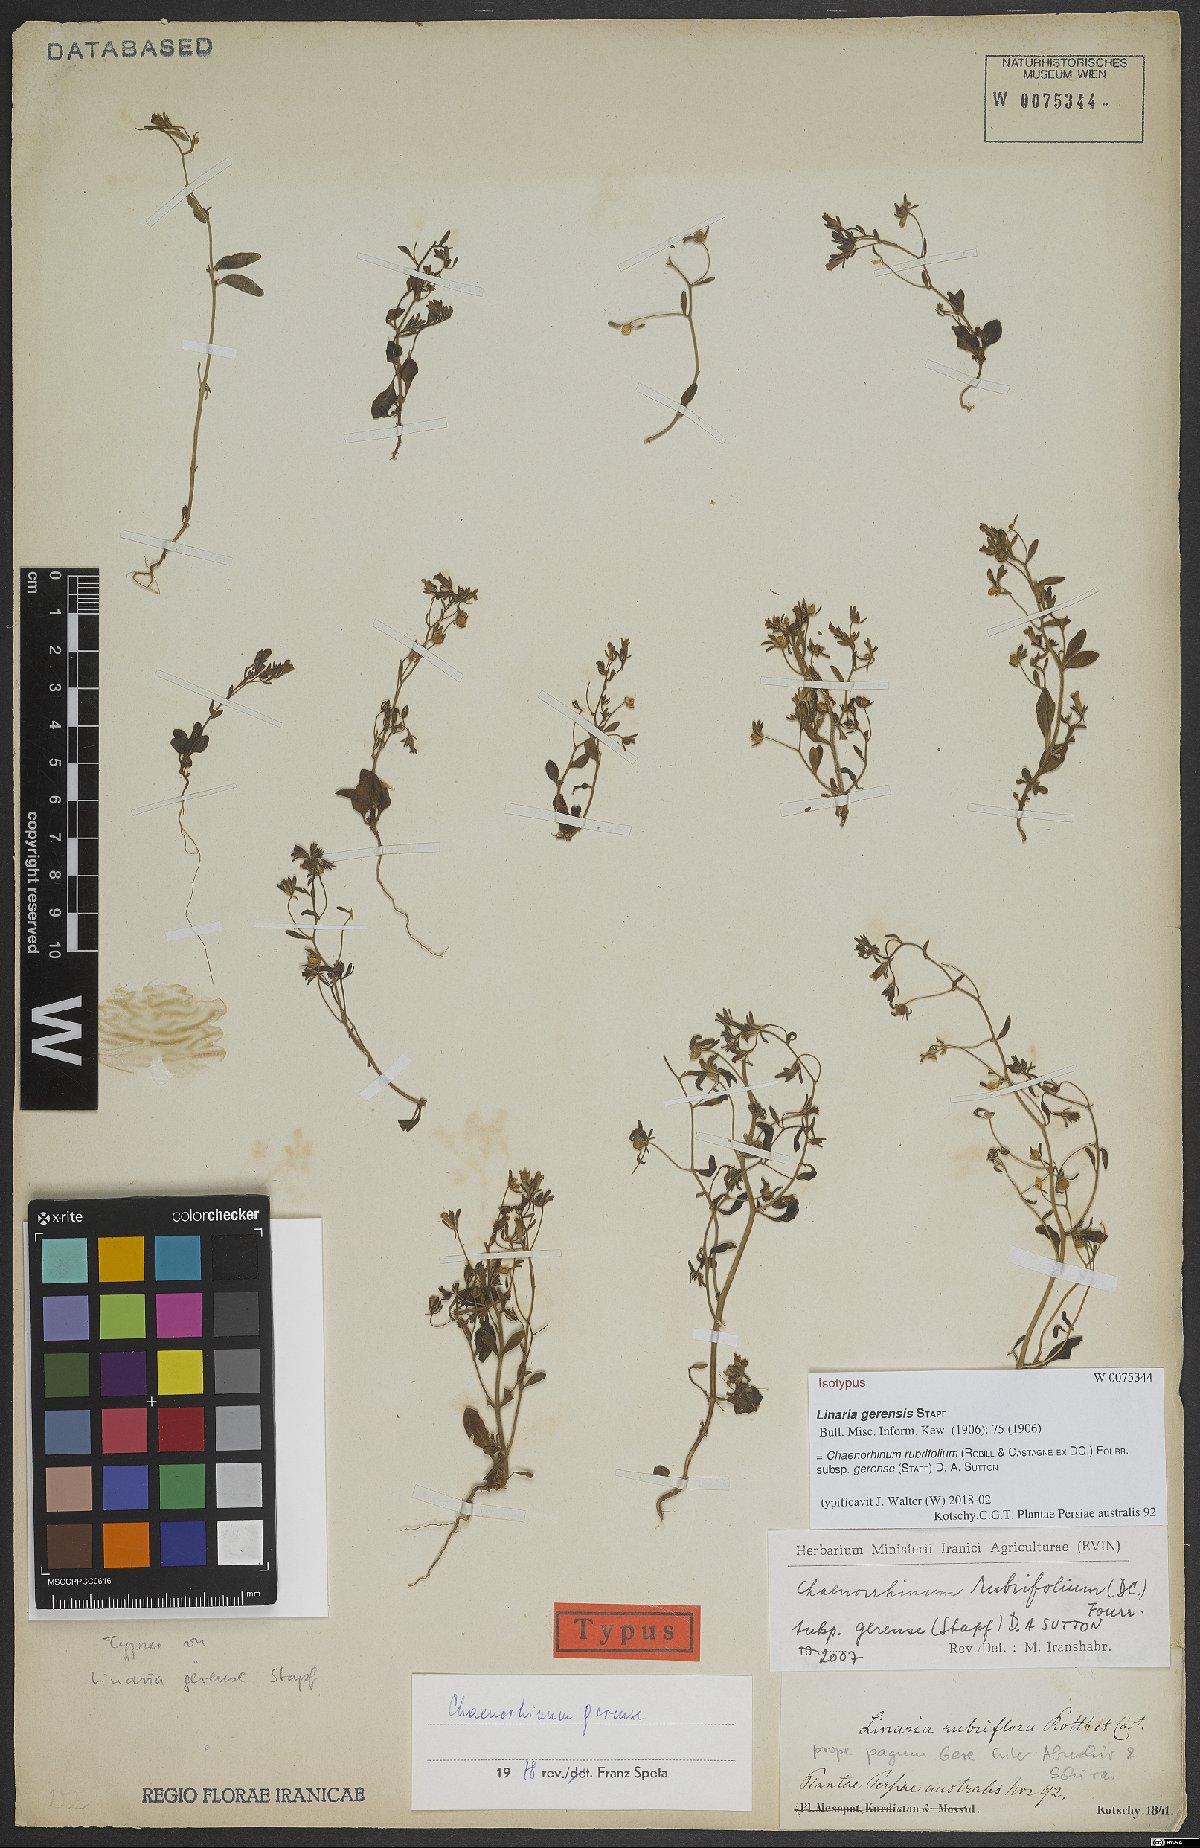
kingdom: Plantae
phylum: Tracheophyta
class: Magnoliopsida
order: Lamiales
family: Plantaginaceae
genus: Chaenorhinum
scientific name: Chaenorhinum rubrifolium
